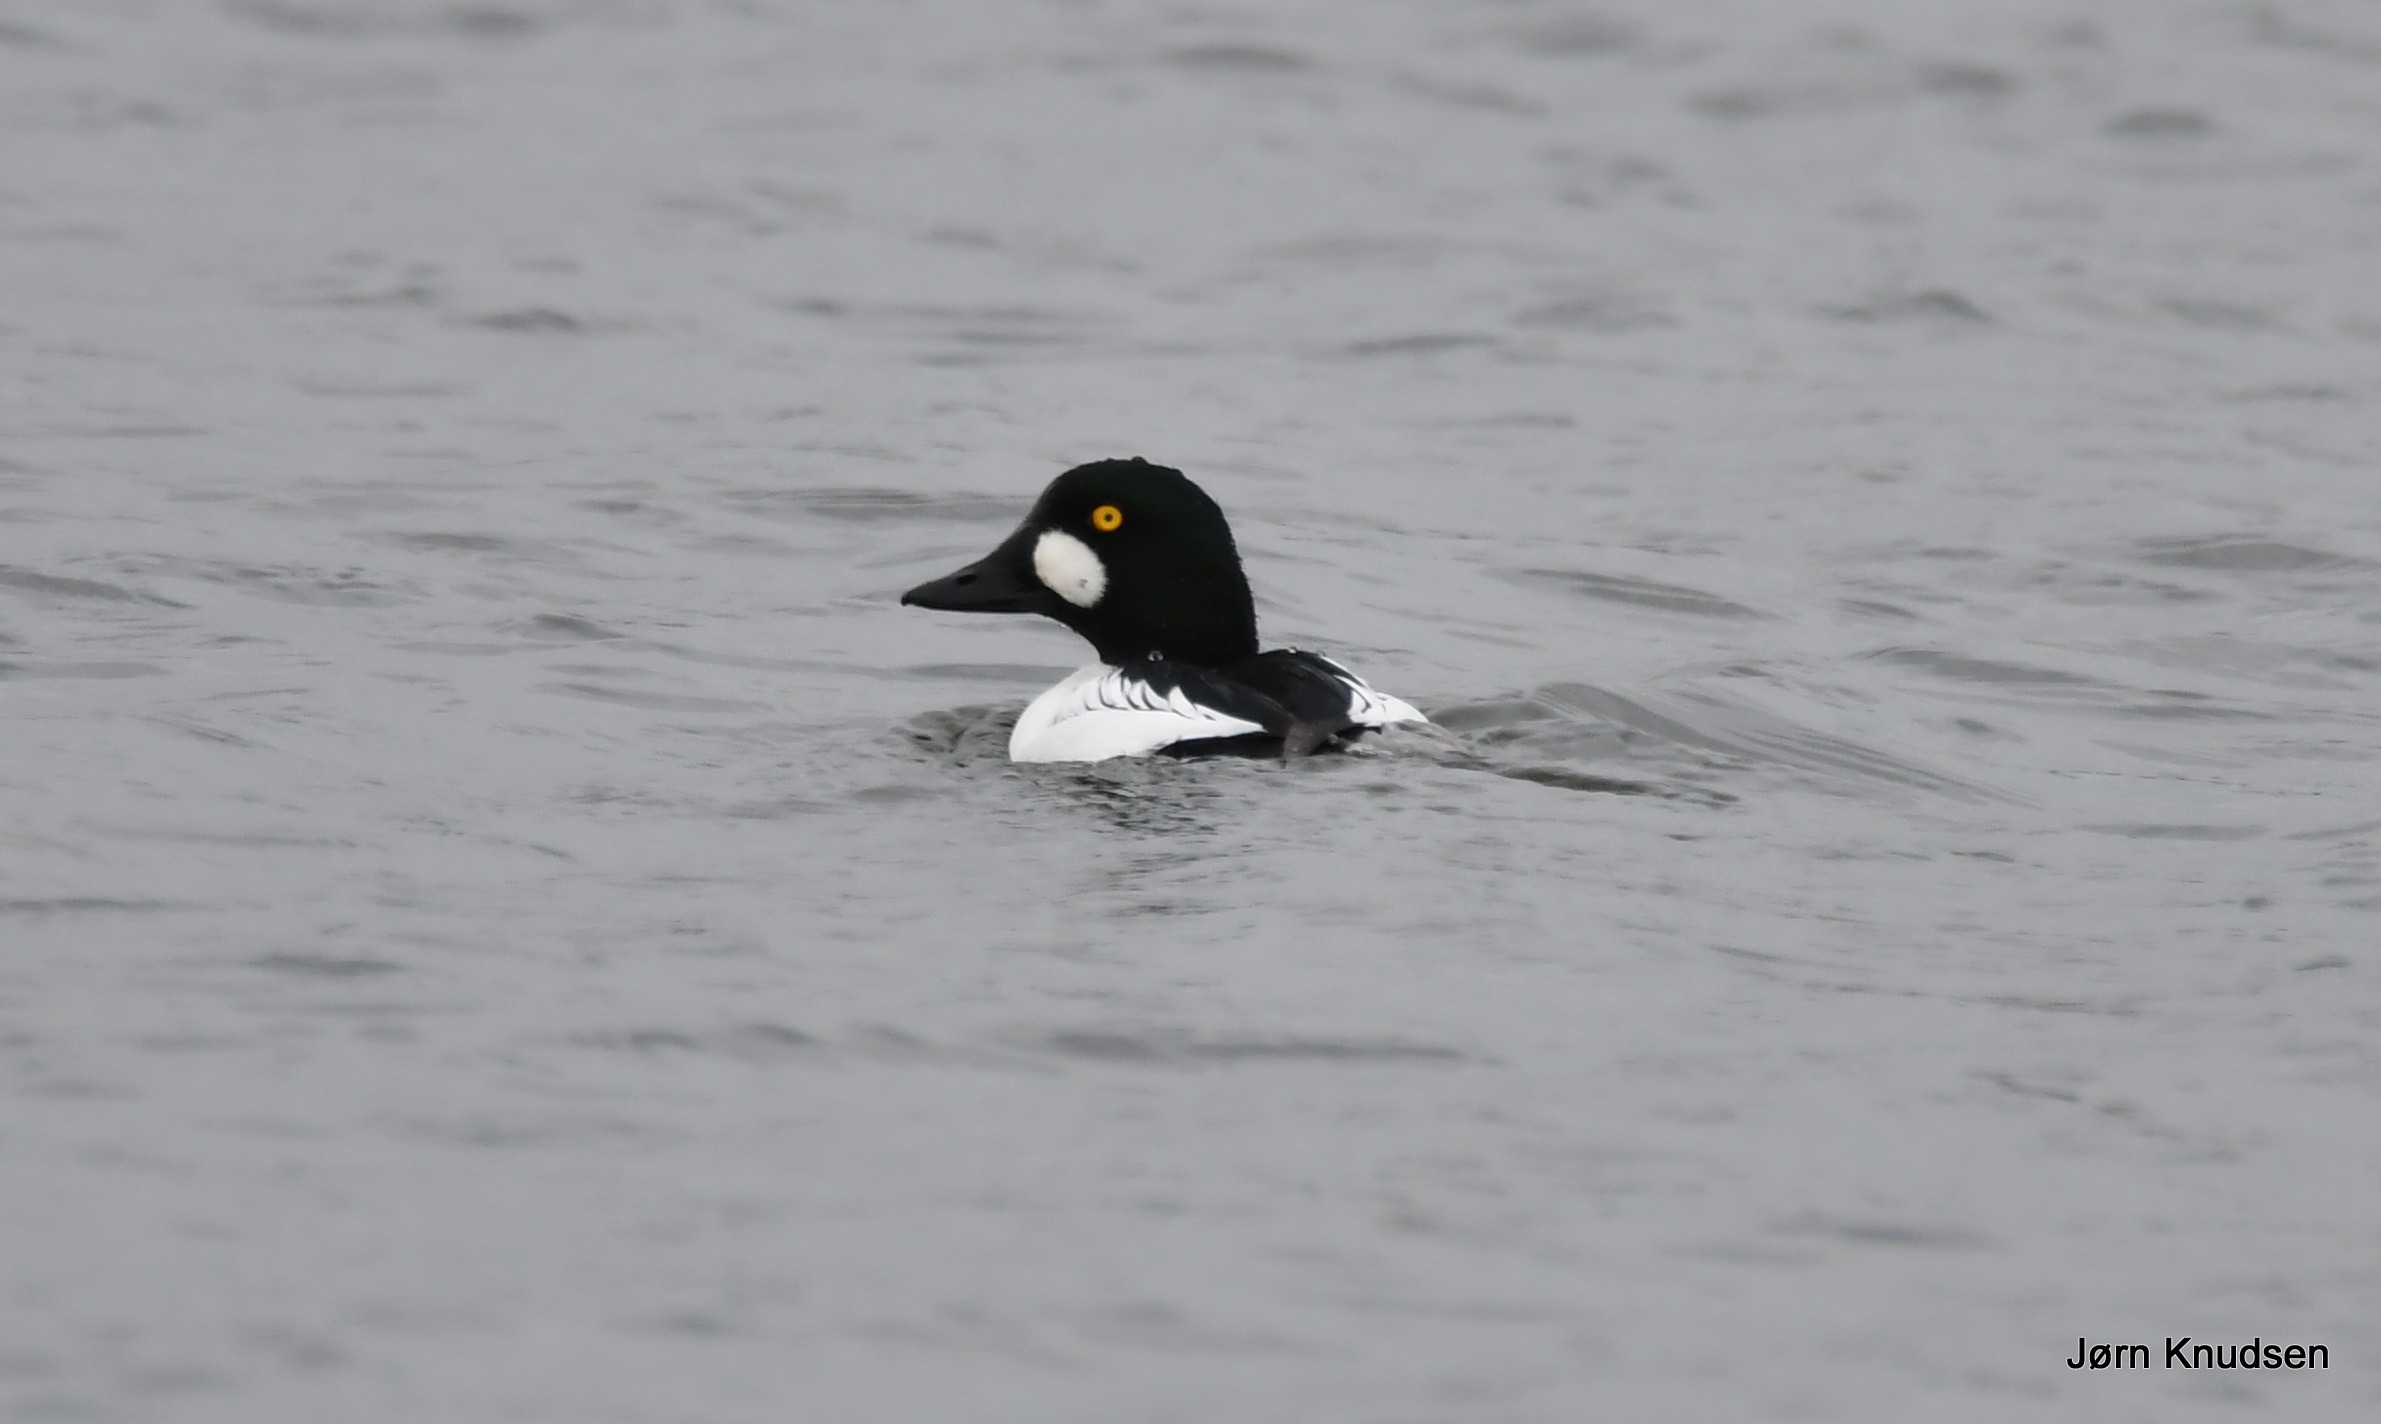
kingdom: Animalia
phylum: Chordata
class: Aves
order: Anseriformes
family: Anatidae
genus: Bucephala
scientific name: Bucephala clangula
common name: Hvinand
